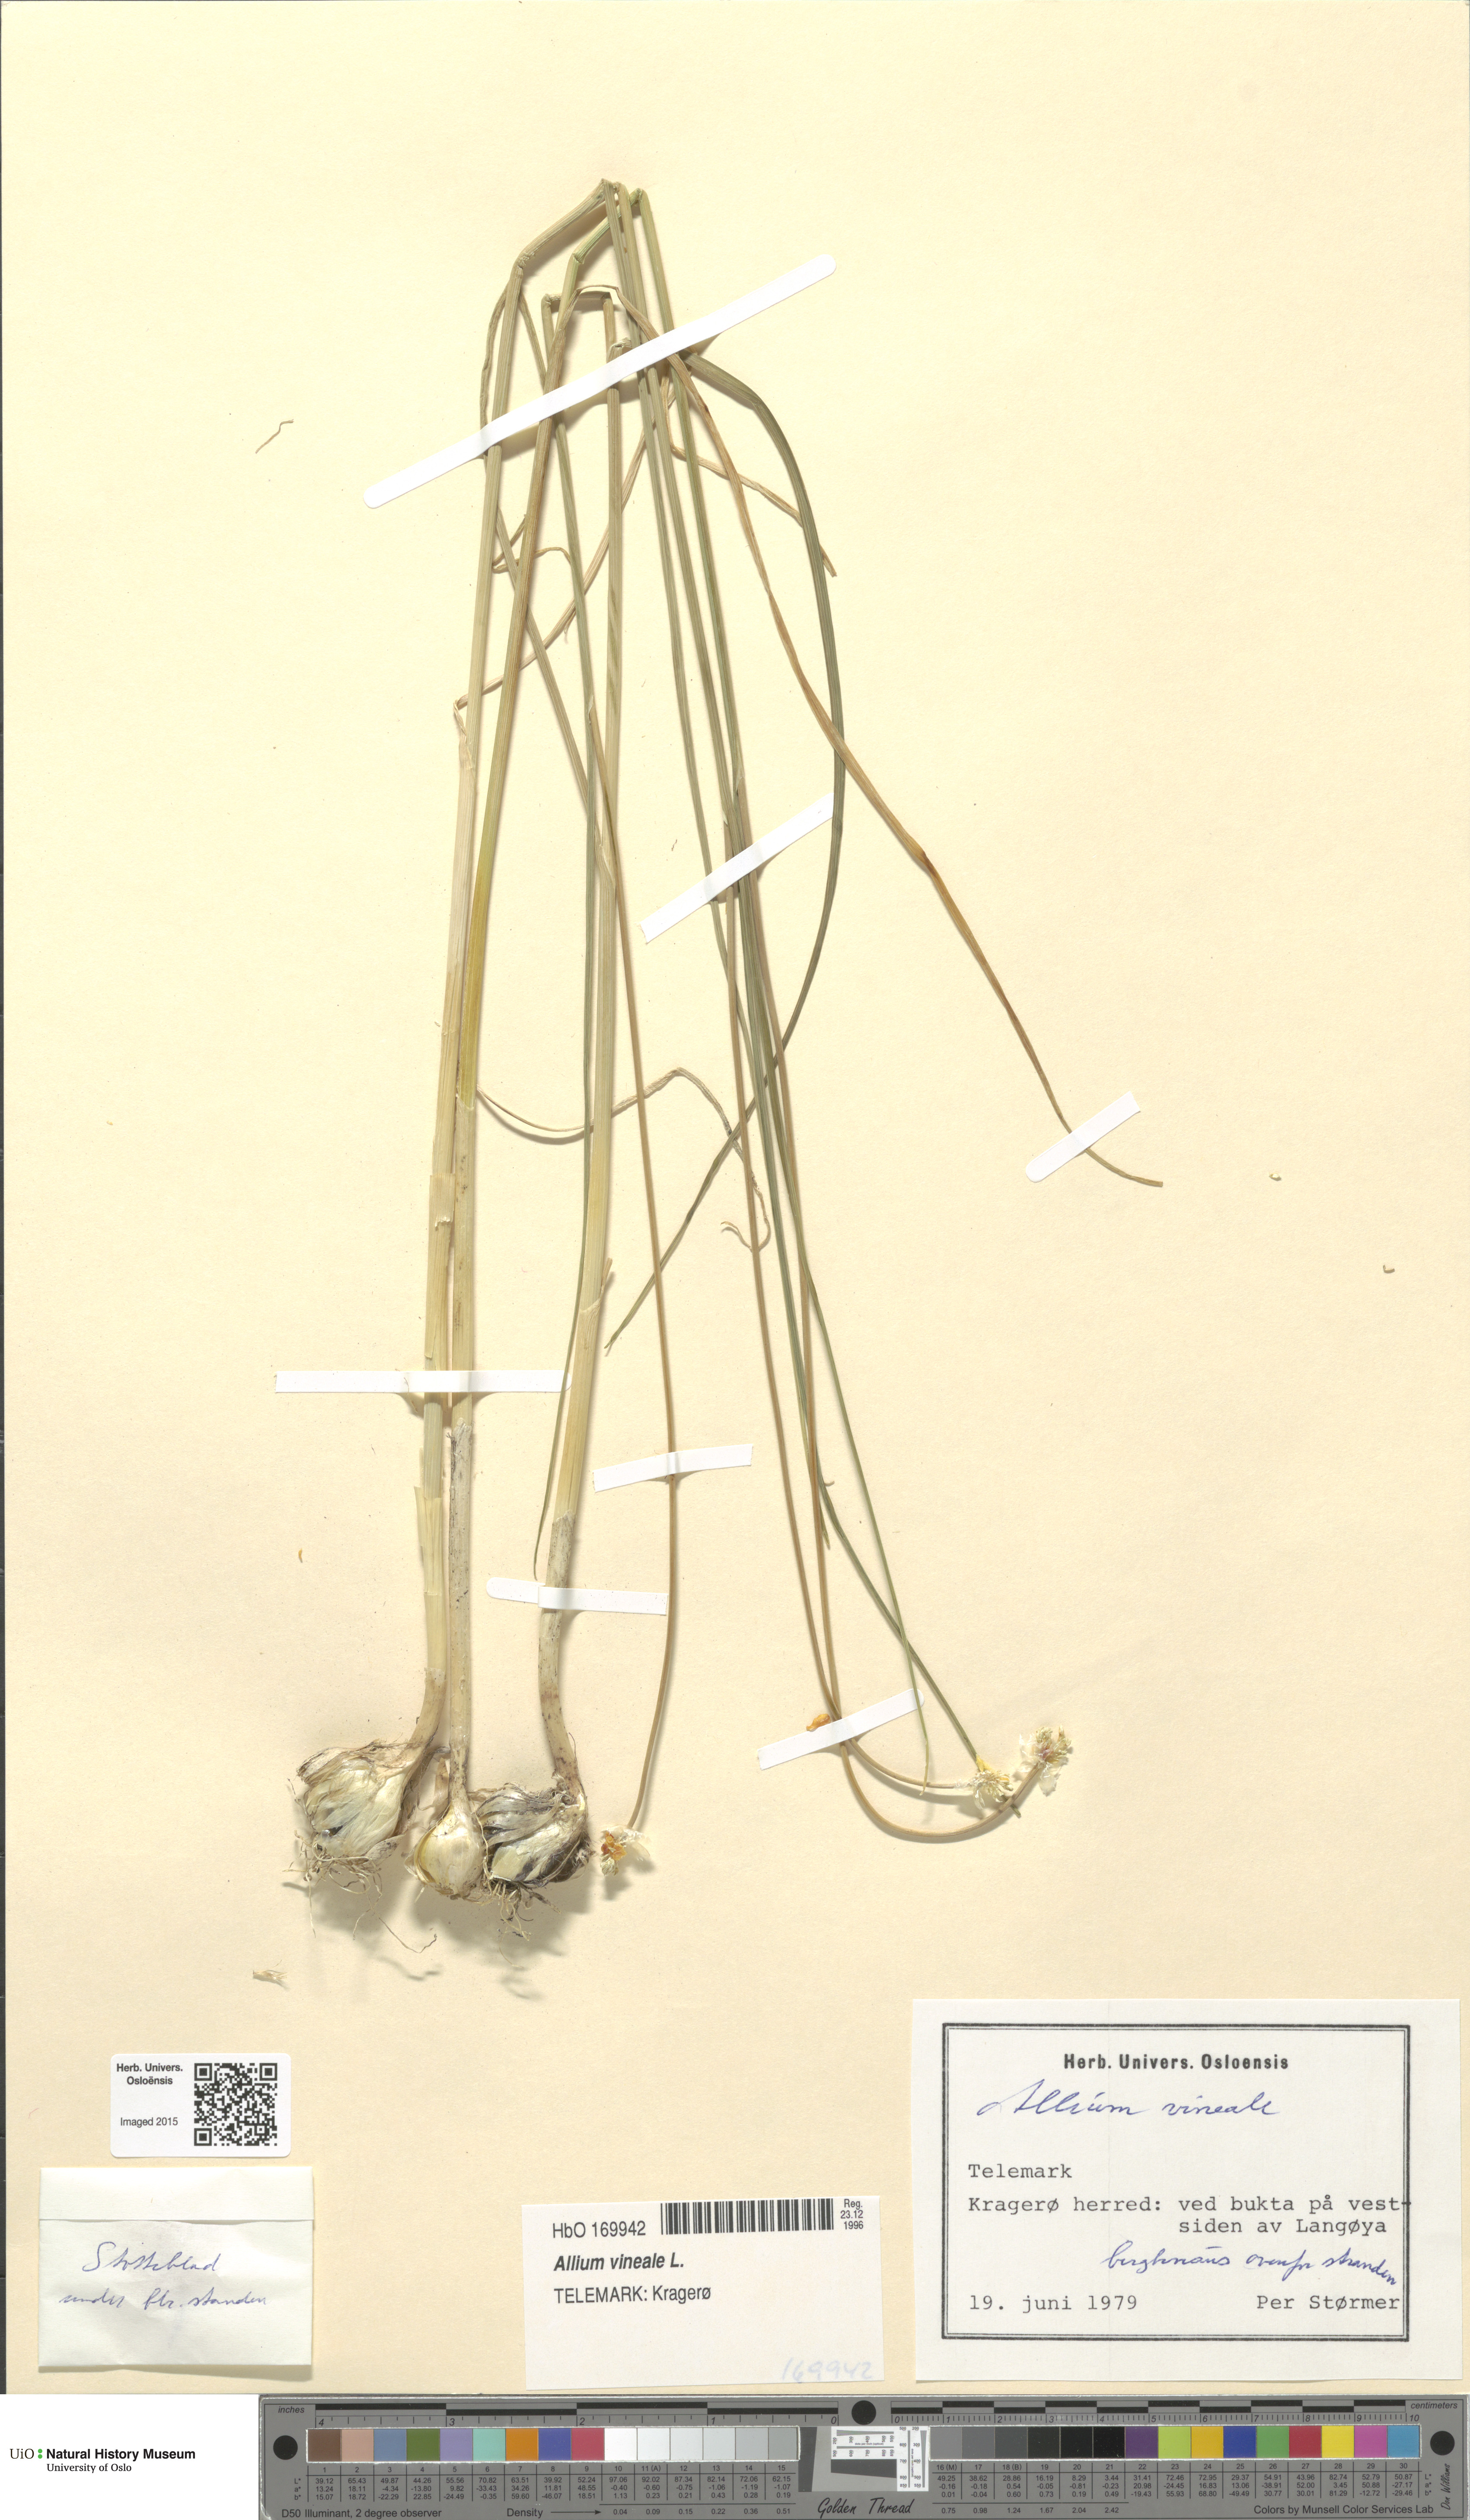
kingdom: Plantae
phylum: Tracheophyta
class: Liliopsida
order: Asparagales
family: Amaryllidaceae
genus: Allium
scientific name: Allium vineale
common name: Crow garlic
